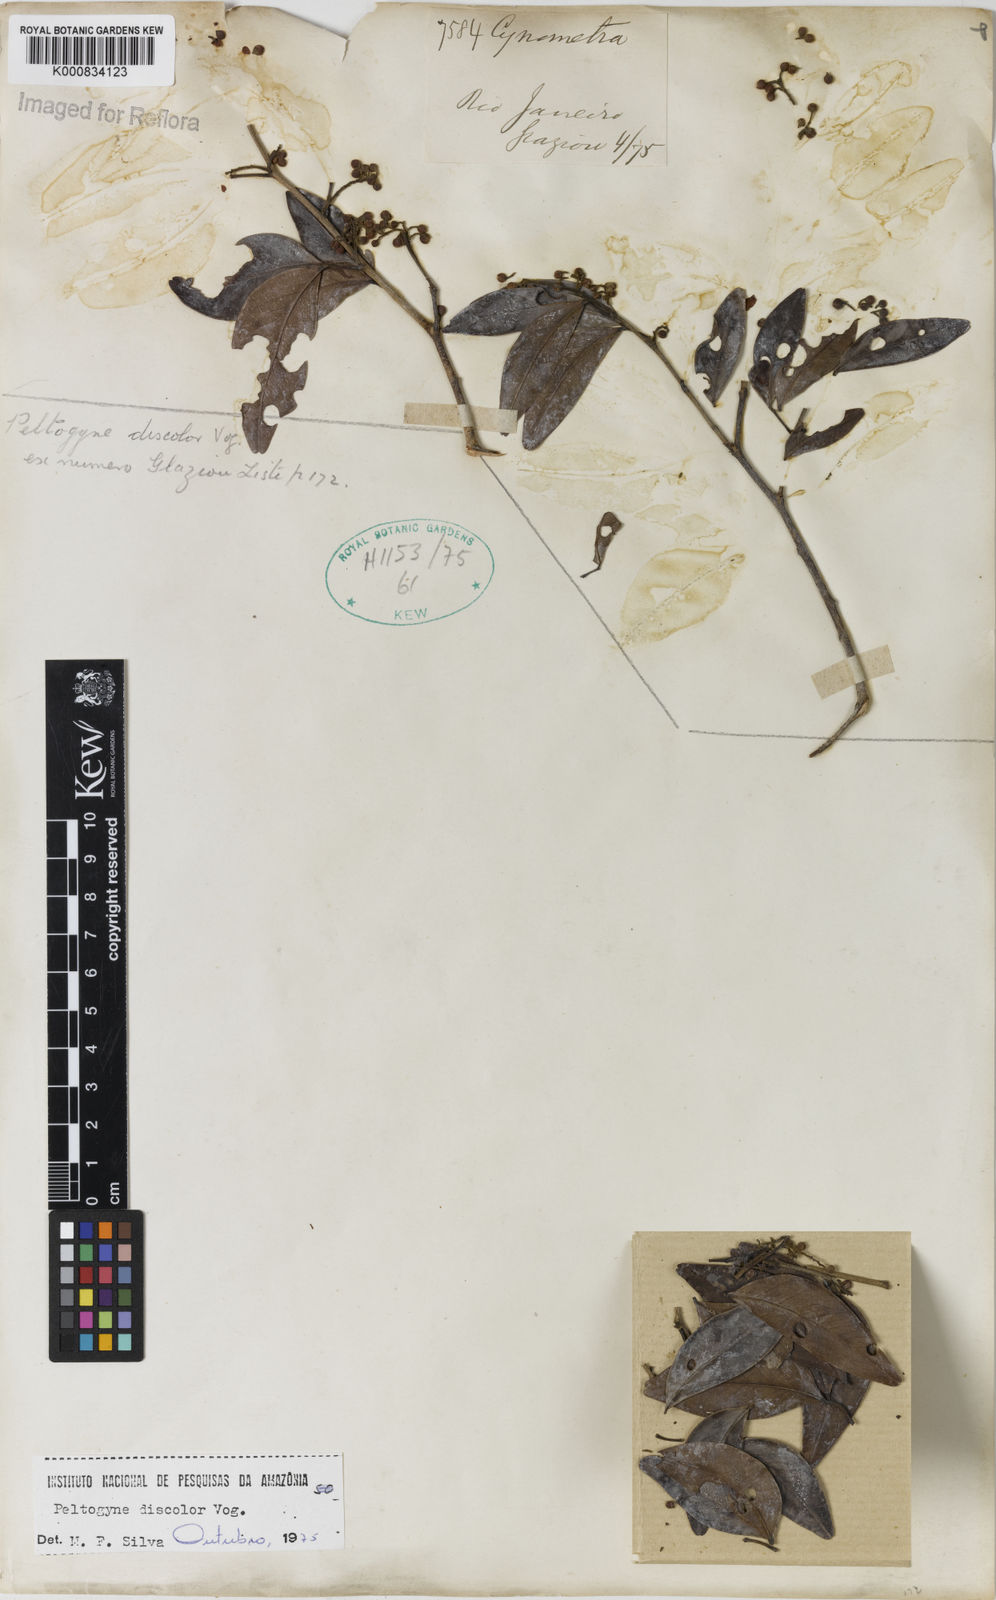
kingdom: Plantae
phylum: Tracheophyta
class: Magnoliopsida
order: Fabales
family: Fabaceae
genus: Peltogyne
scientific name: Peltogyne discolor
